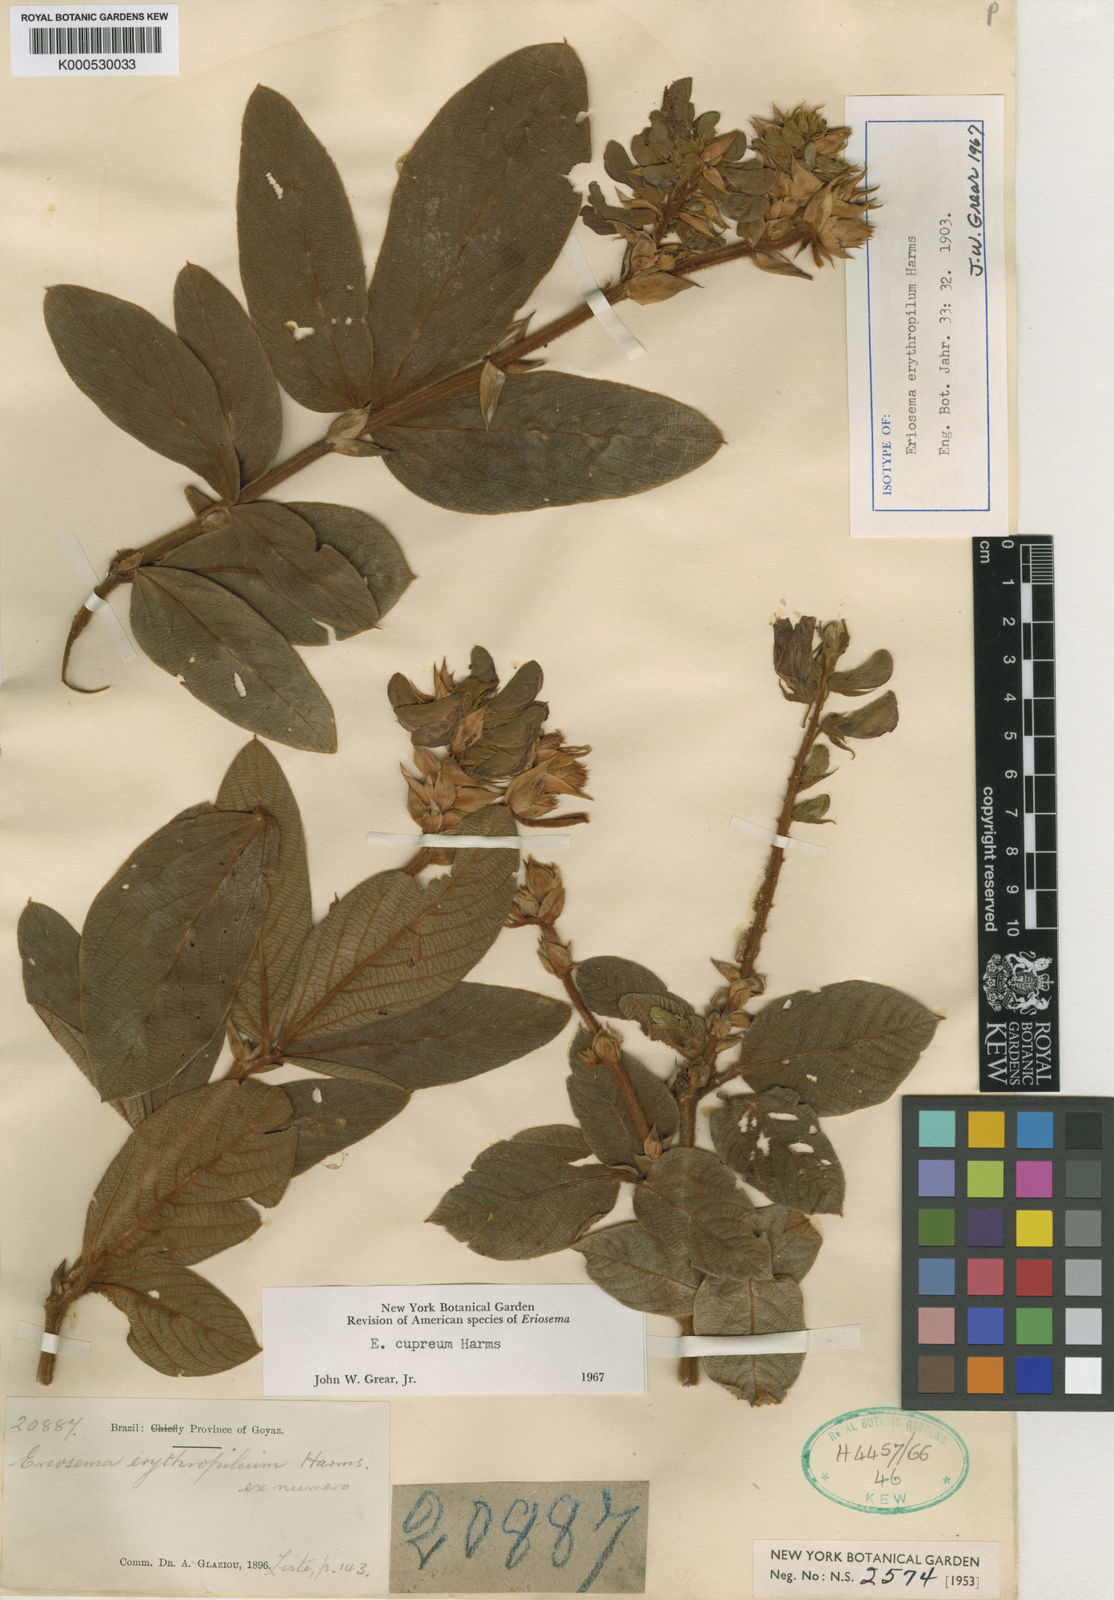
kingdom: Plantae
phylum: Tracheophyta
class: Magnoliopsida
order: Fabales
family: Fabaceae
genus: Eriosema
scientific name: Eriosema cupreum
